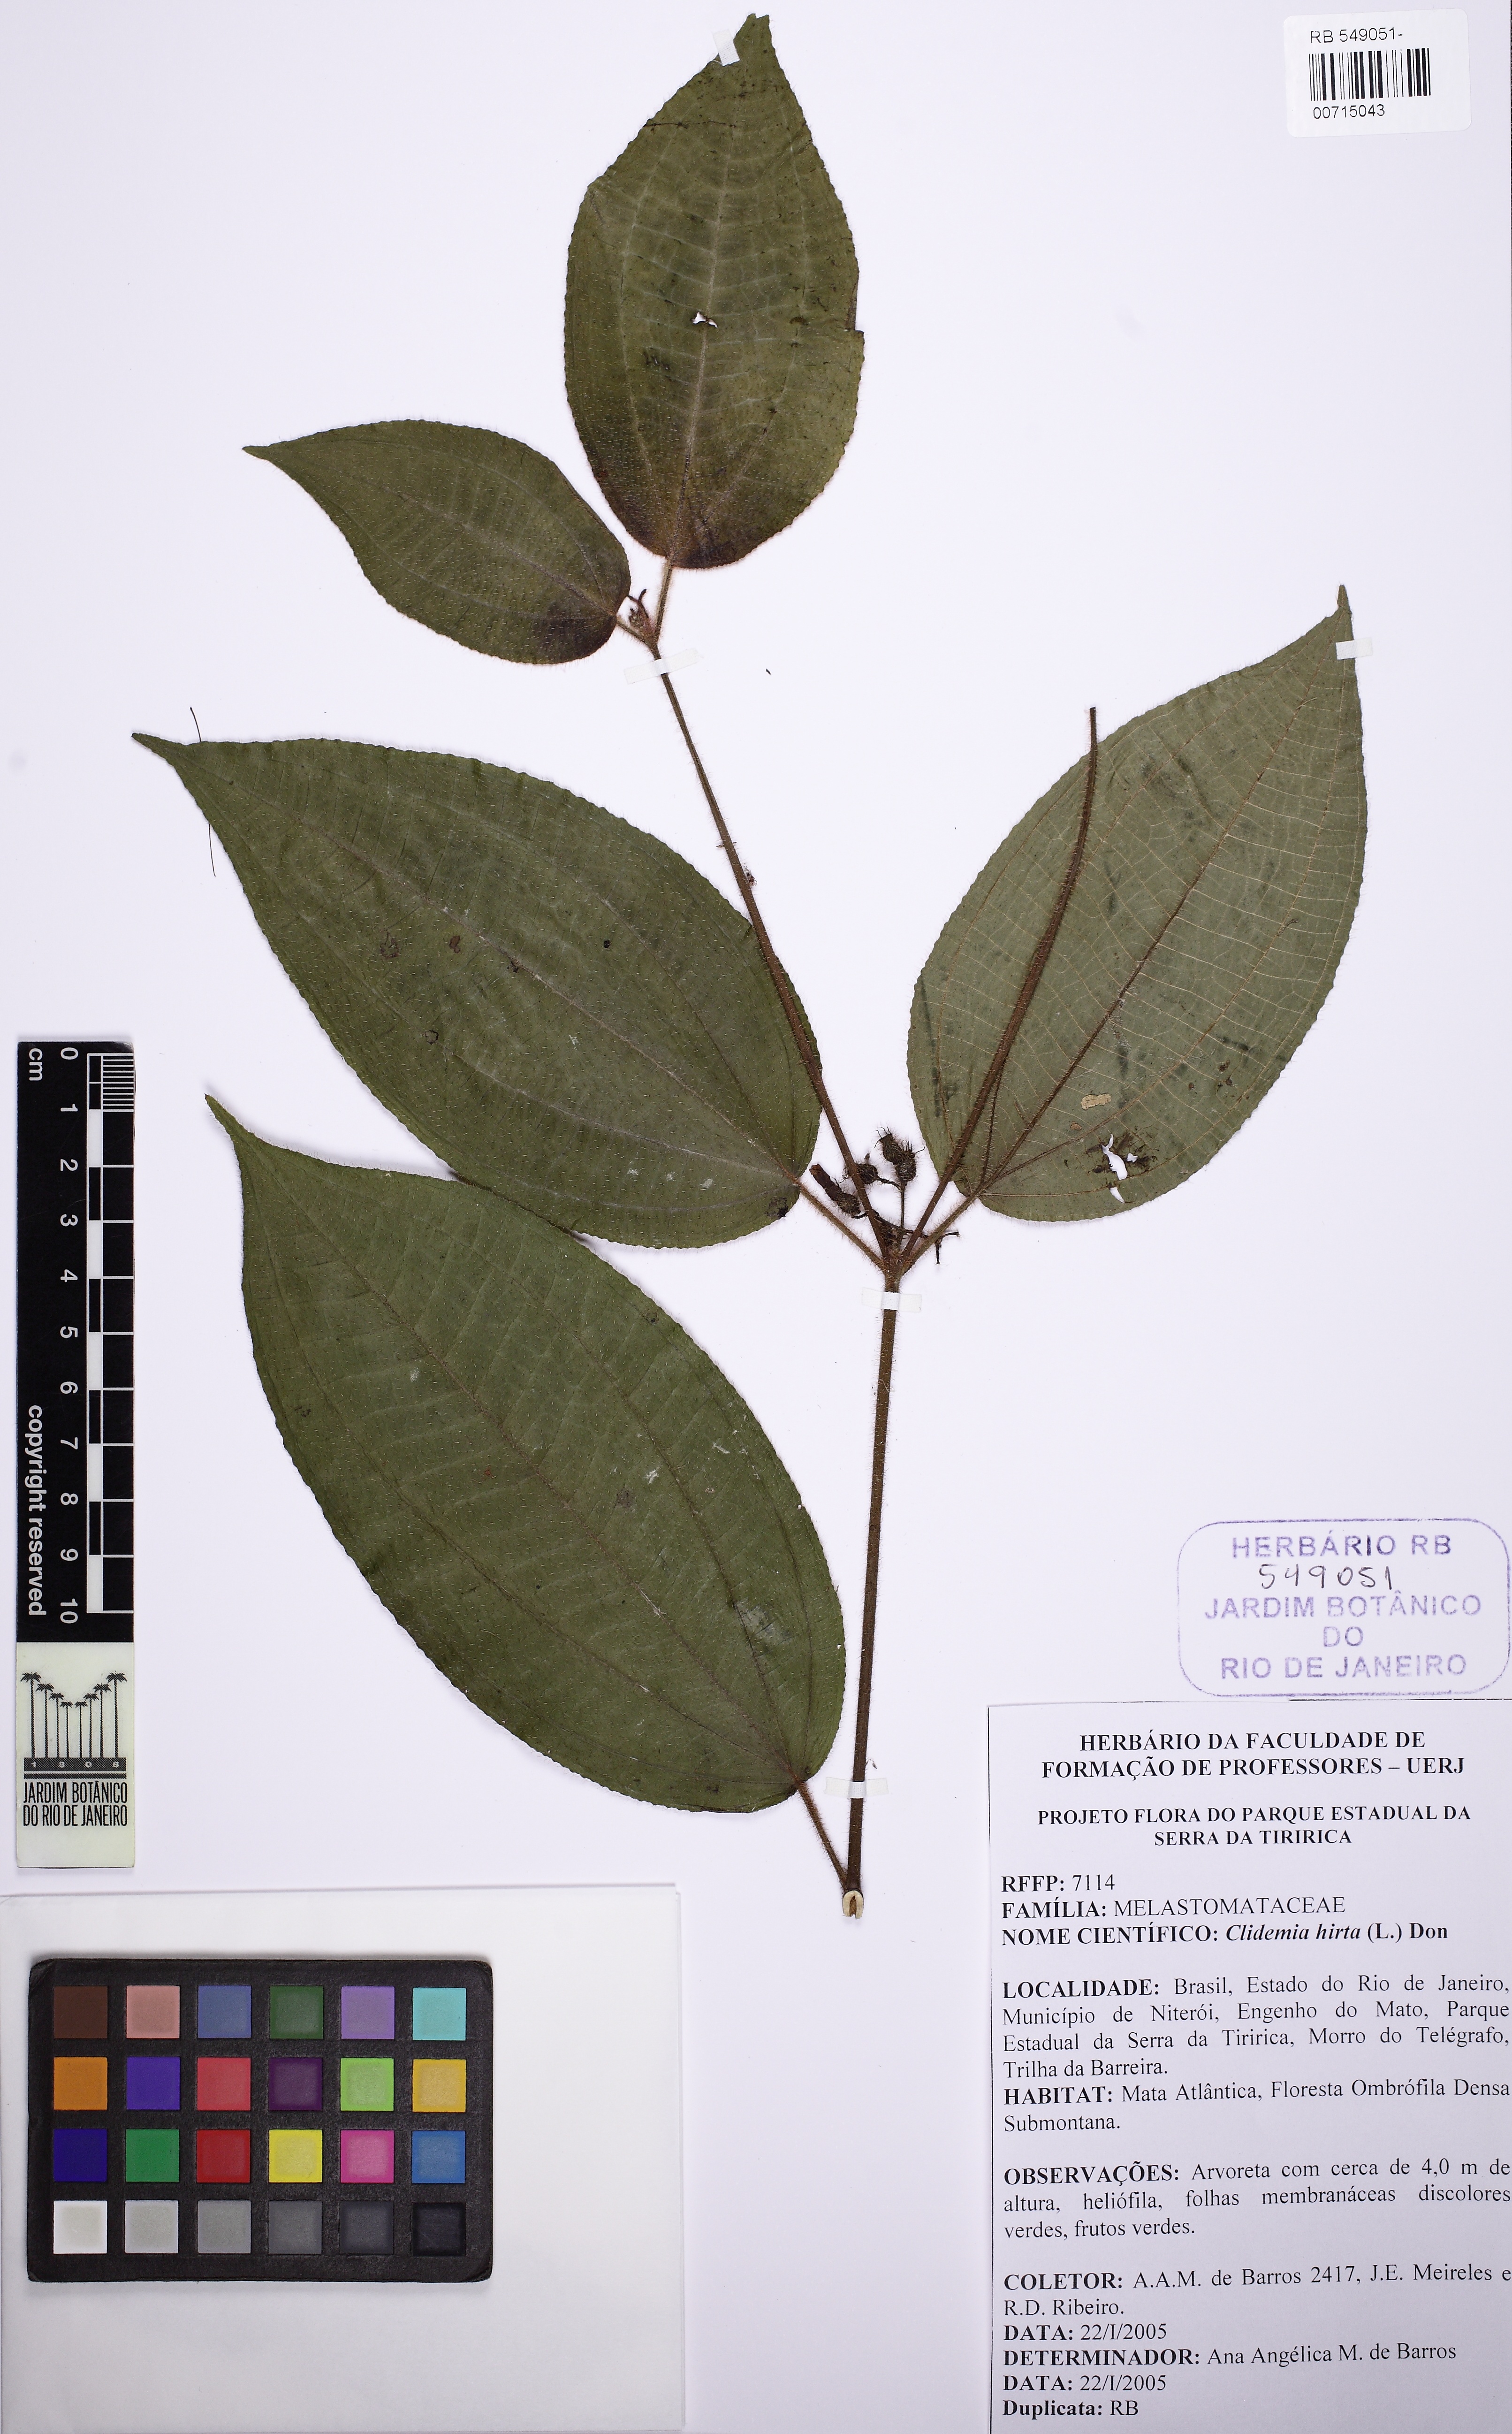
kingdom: Plantae
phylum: Tracheophyta
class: Magnoliopsida
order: Myrtales
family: Melastomataceae
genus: Miconia
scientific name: Miconia crenata
